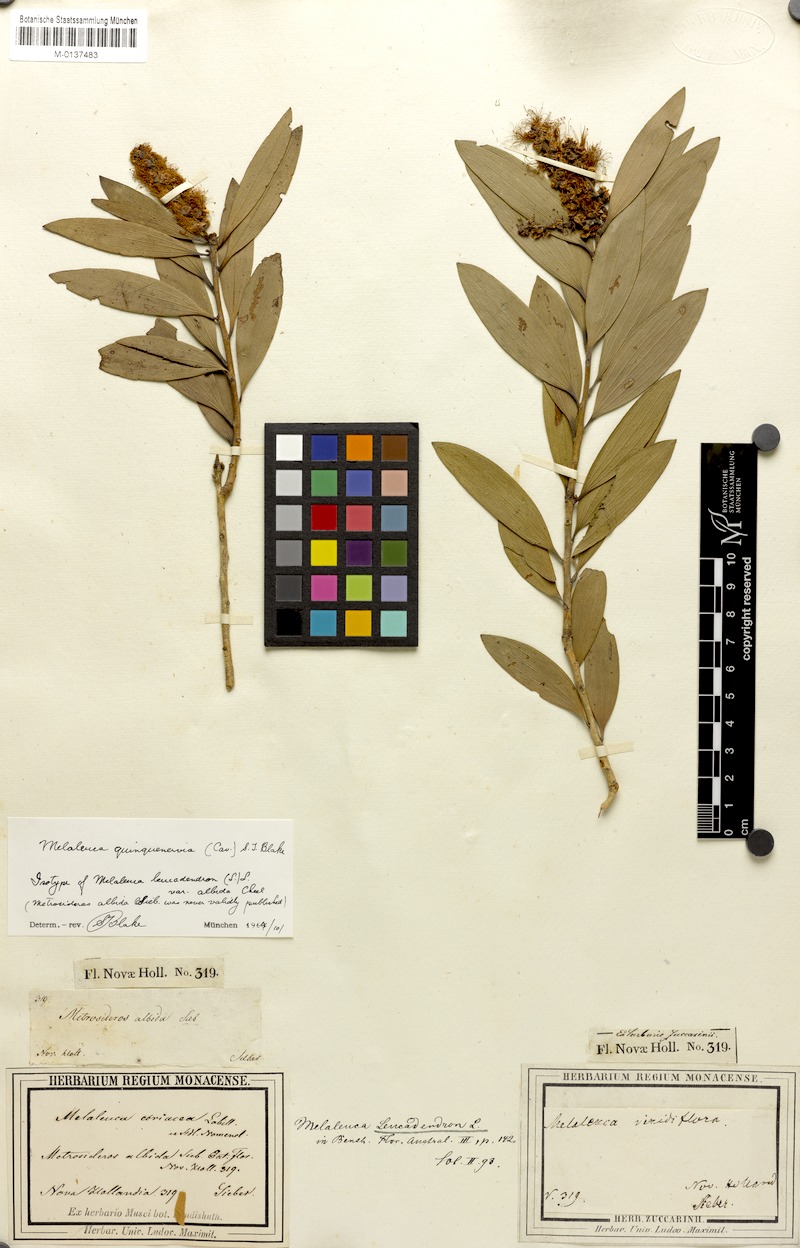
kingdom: Plantae
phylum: Tracheophyta
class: Magnoliopsida
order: Myrtales
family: Myrtaceae
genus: Melaleuca
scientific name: Melaleuca quinquenervia
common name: Punktree
